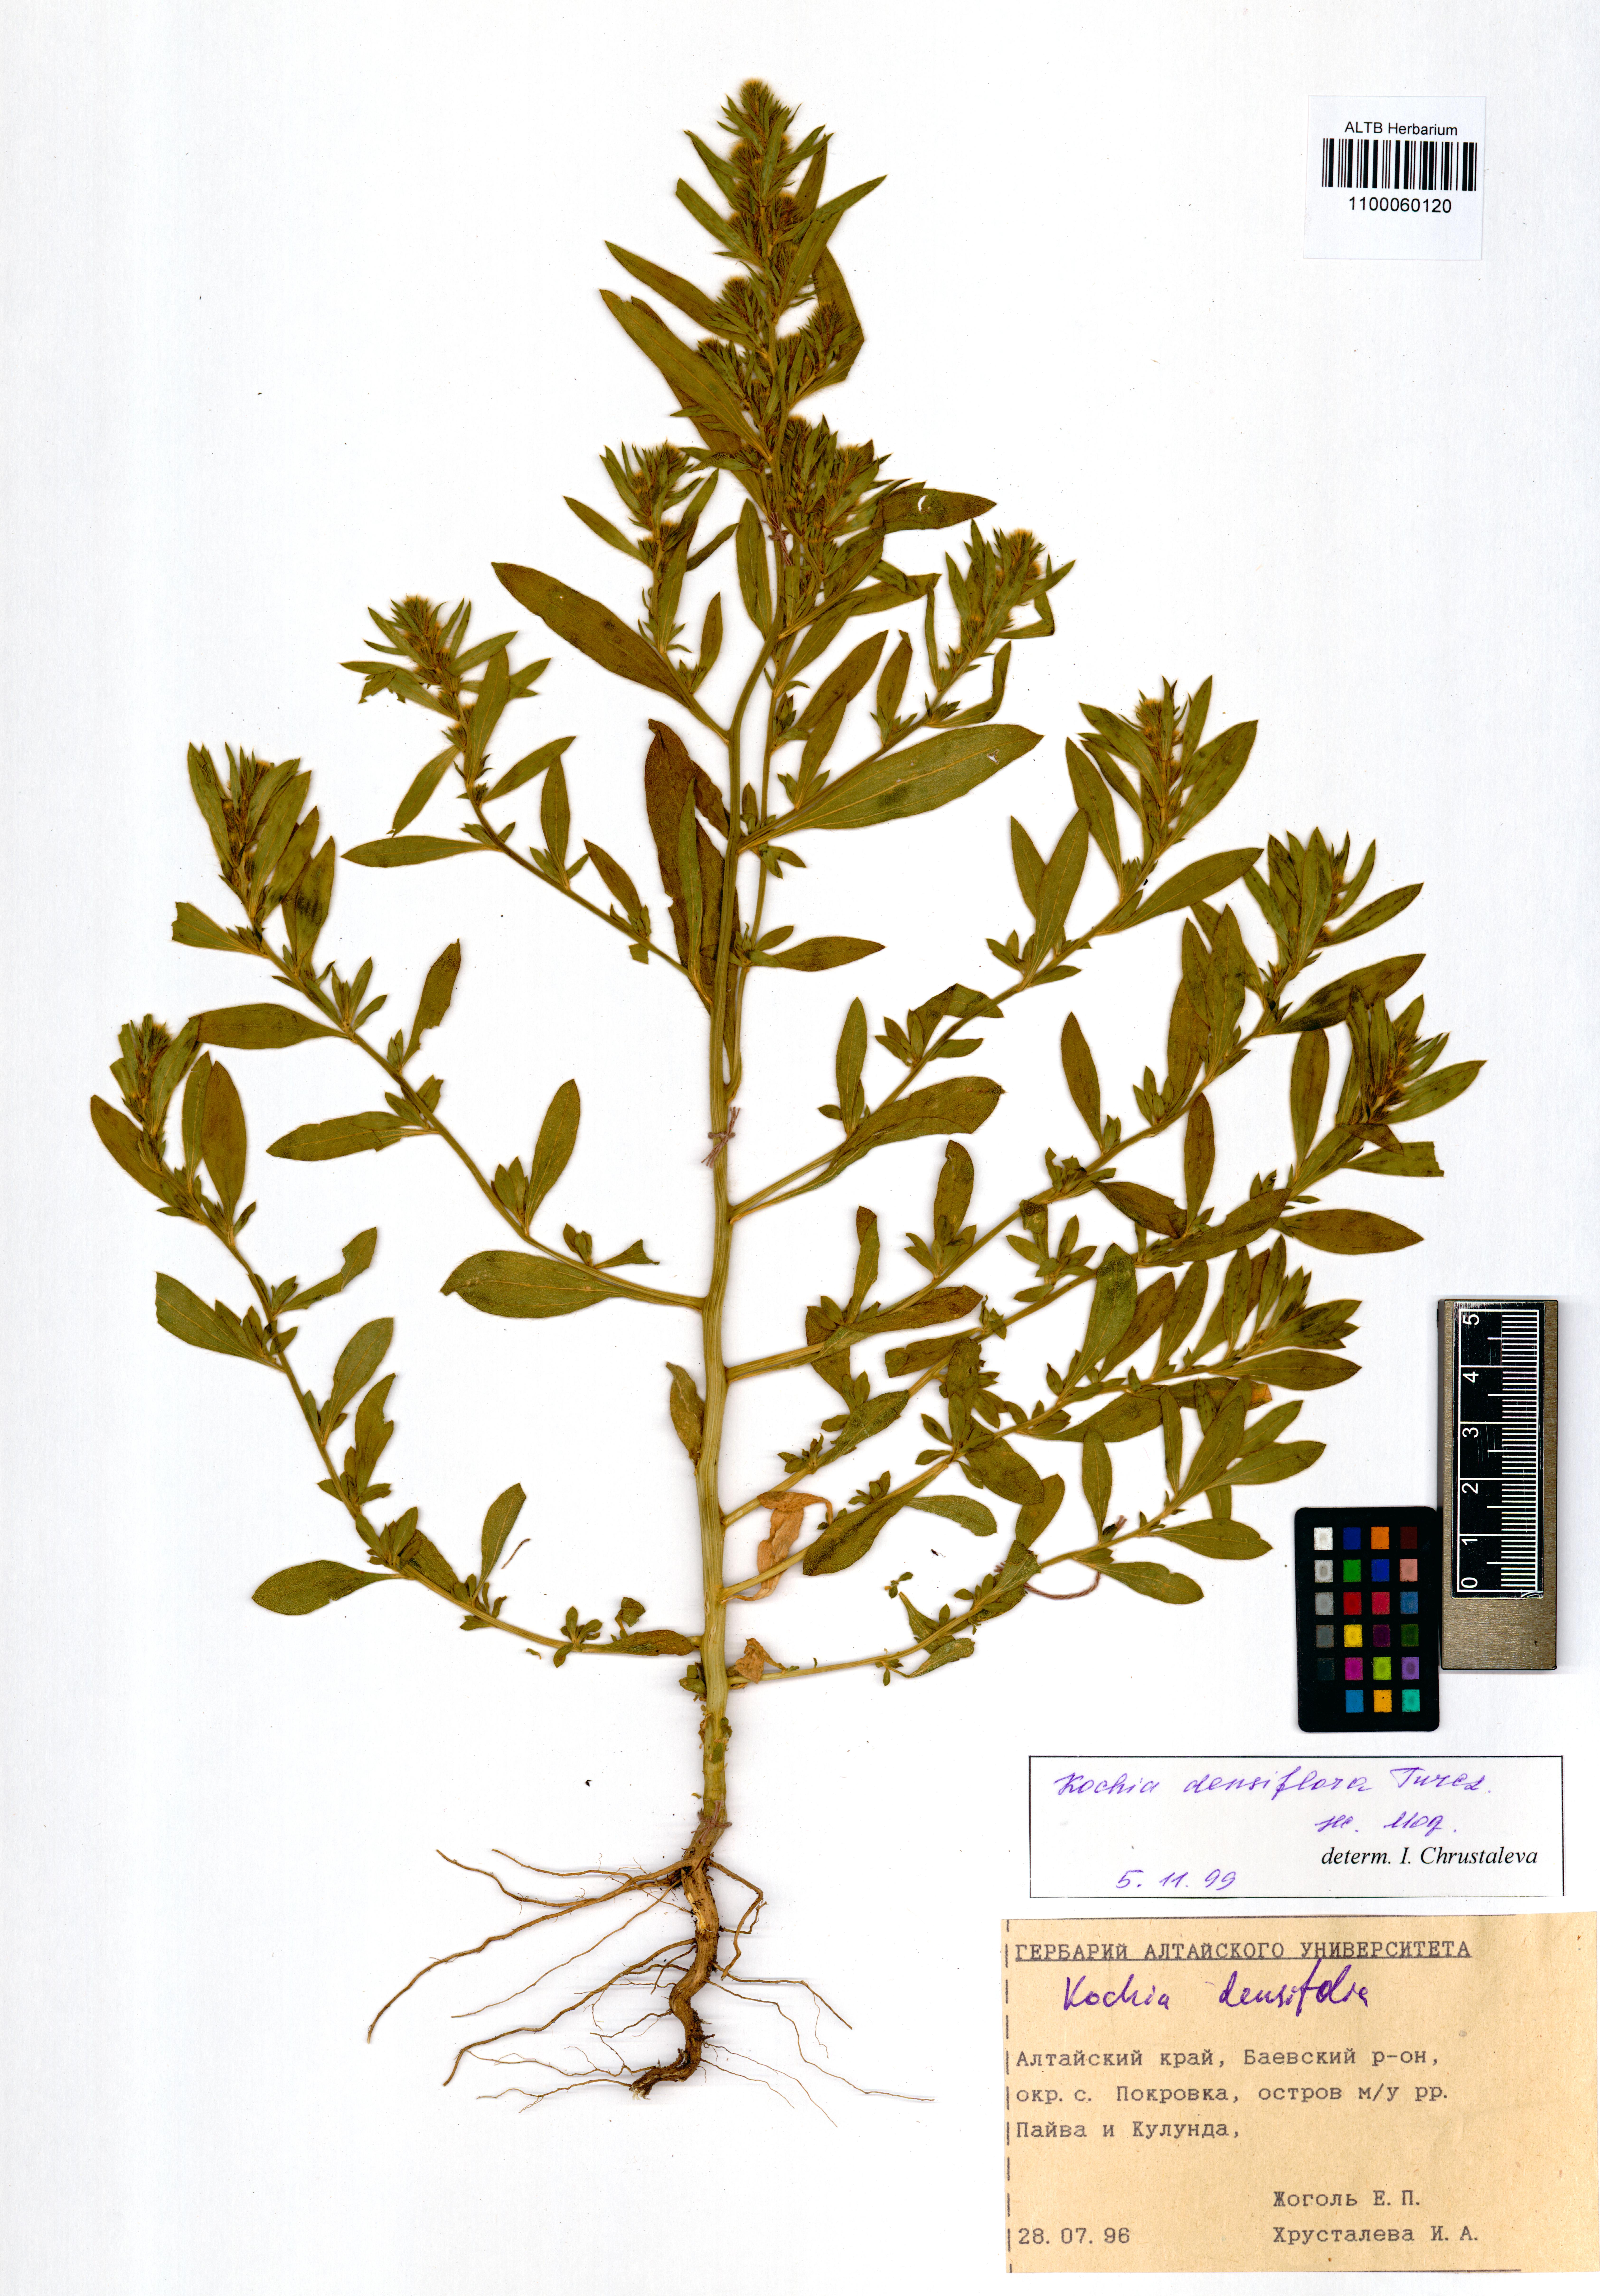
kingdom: Plantae
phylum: Tracheophyta
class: Magnoliopsida
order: Caryophyllales
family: Amaranthaceae
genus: Bassia
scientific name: Bassia scoparia
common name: Belvedere
